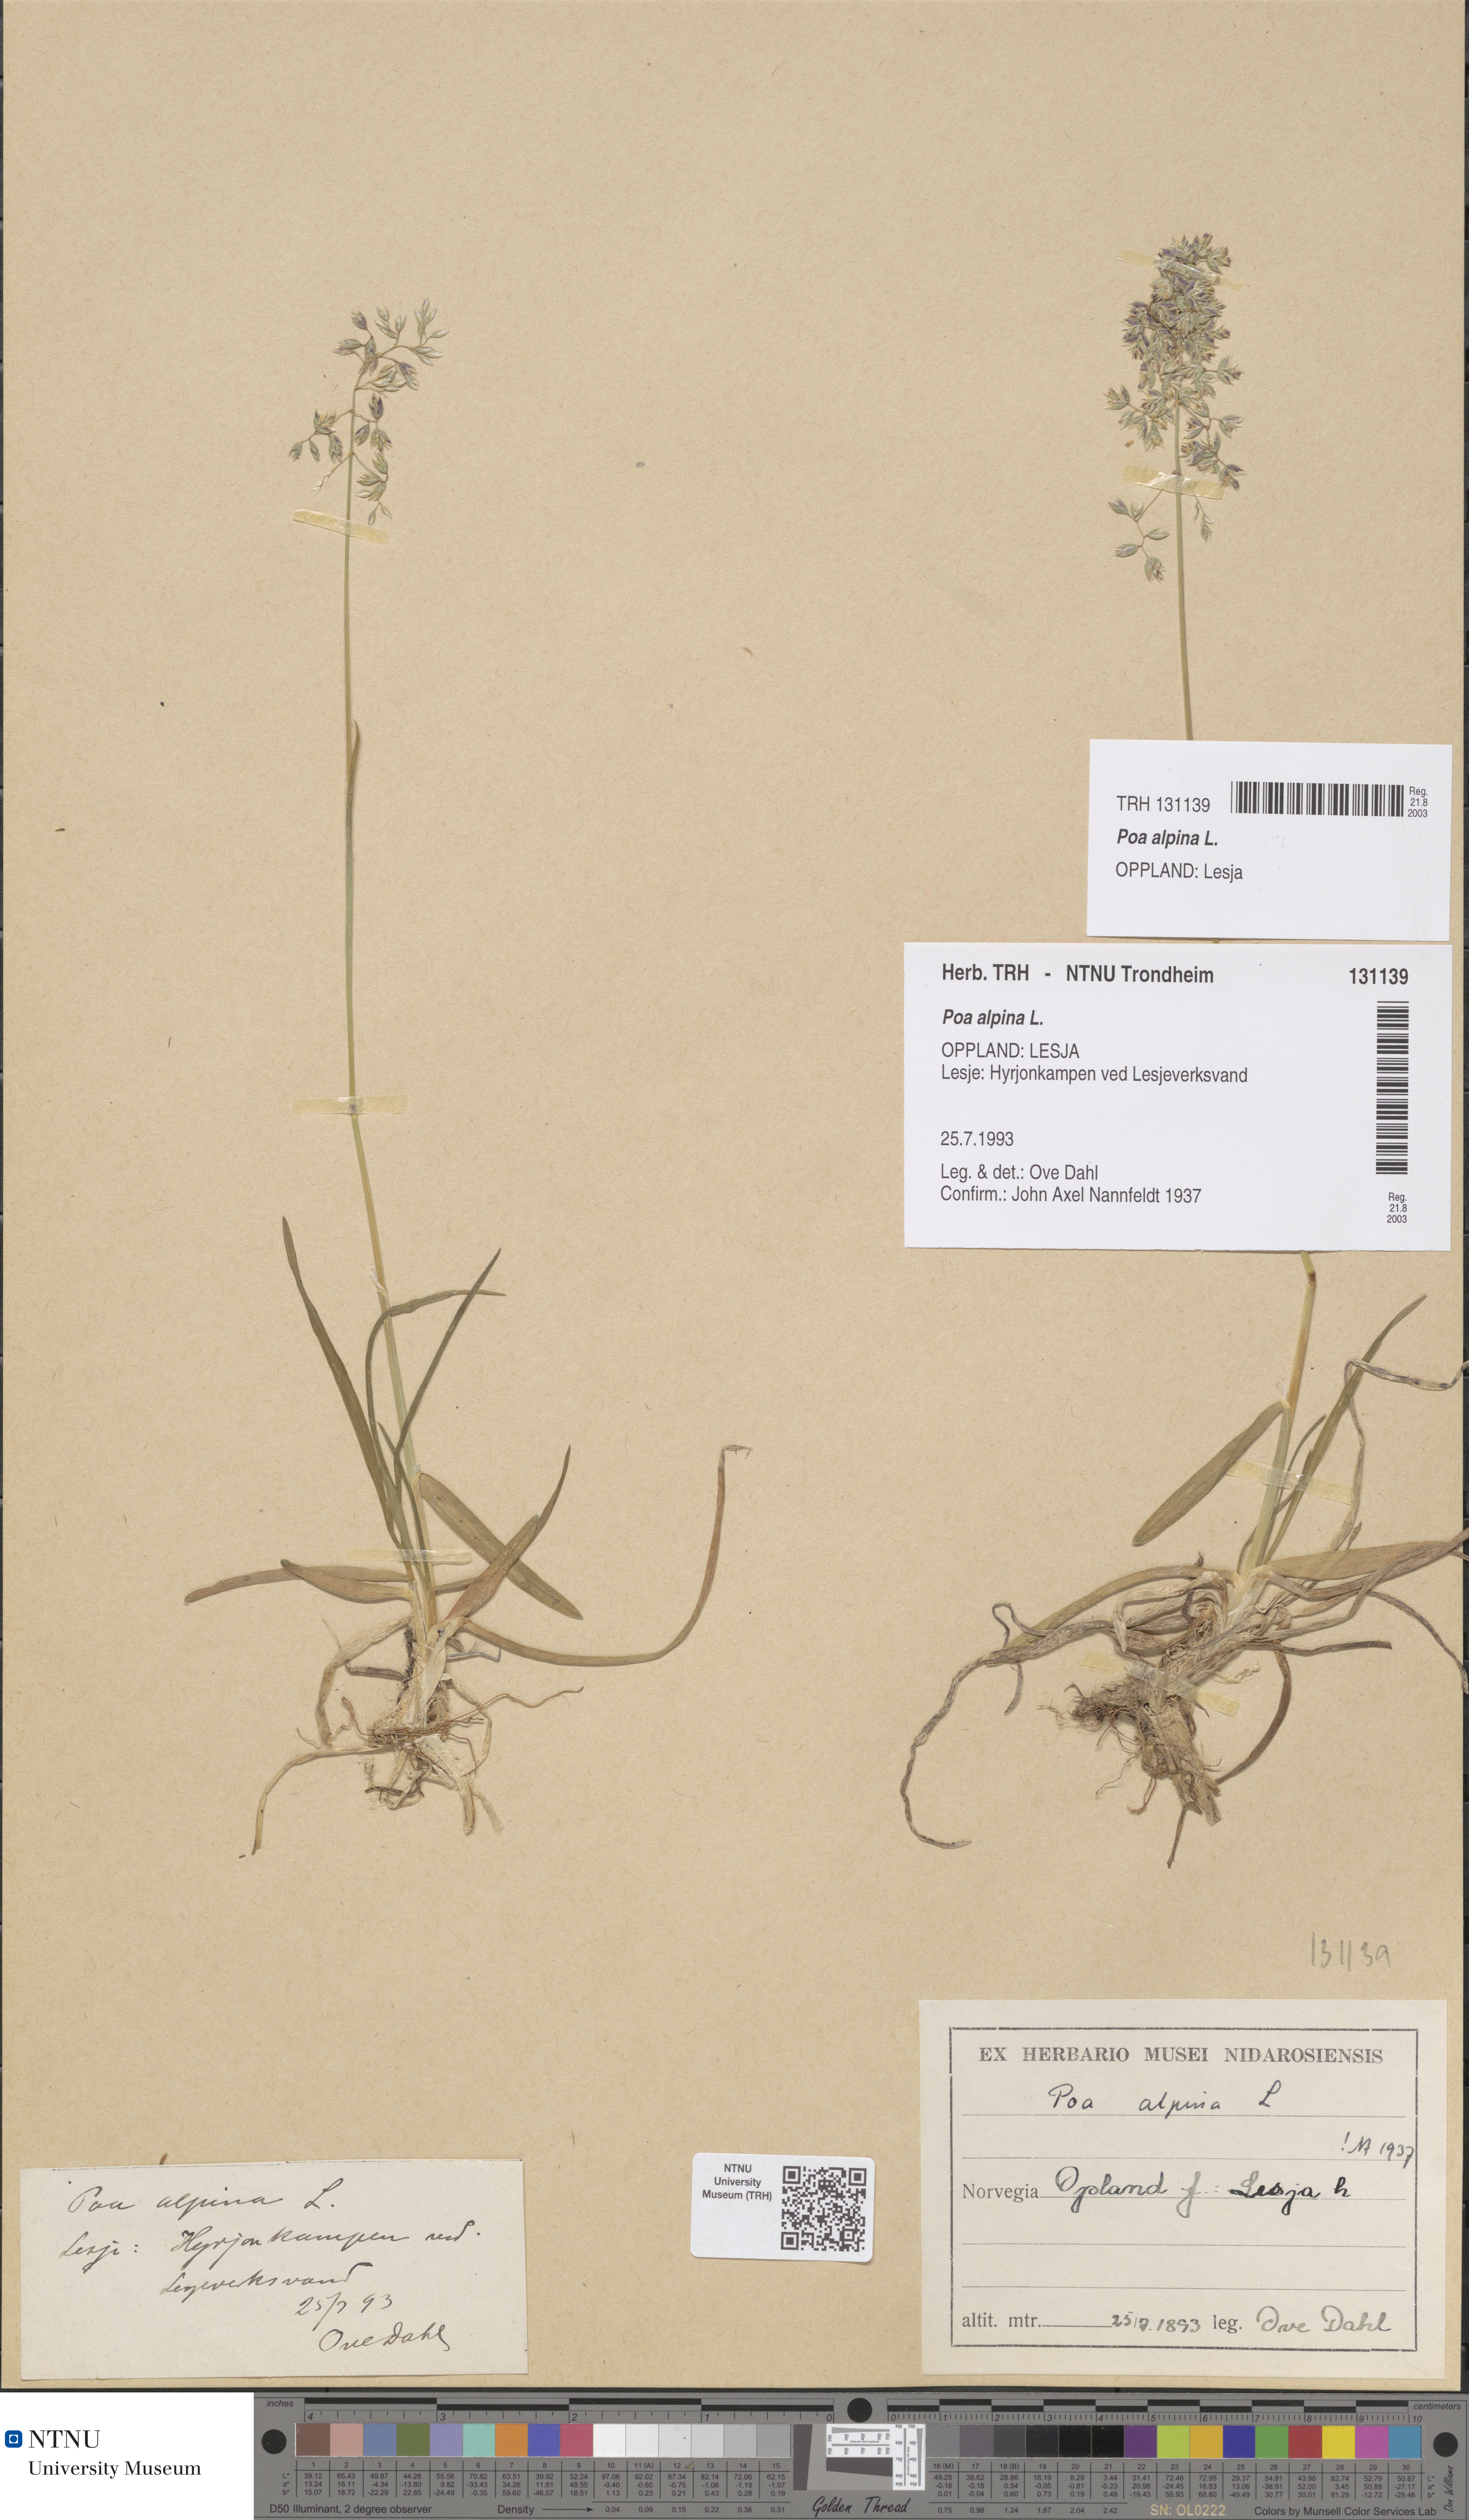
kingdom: Plantae
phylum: Tracheophyta
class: Liliopsida
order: Poales
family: Poaceae
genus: Poa
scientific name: Poa alpina
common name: Alpine bluegrass
